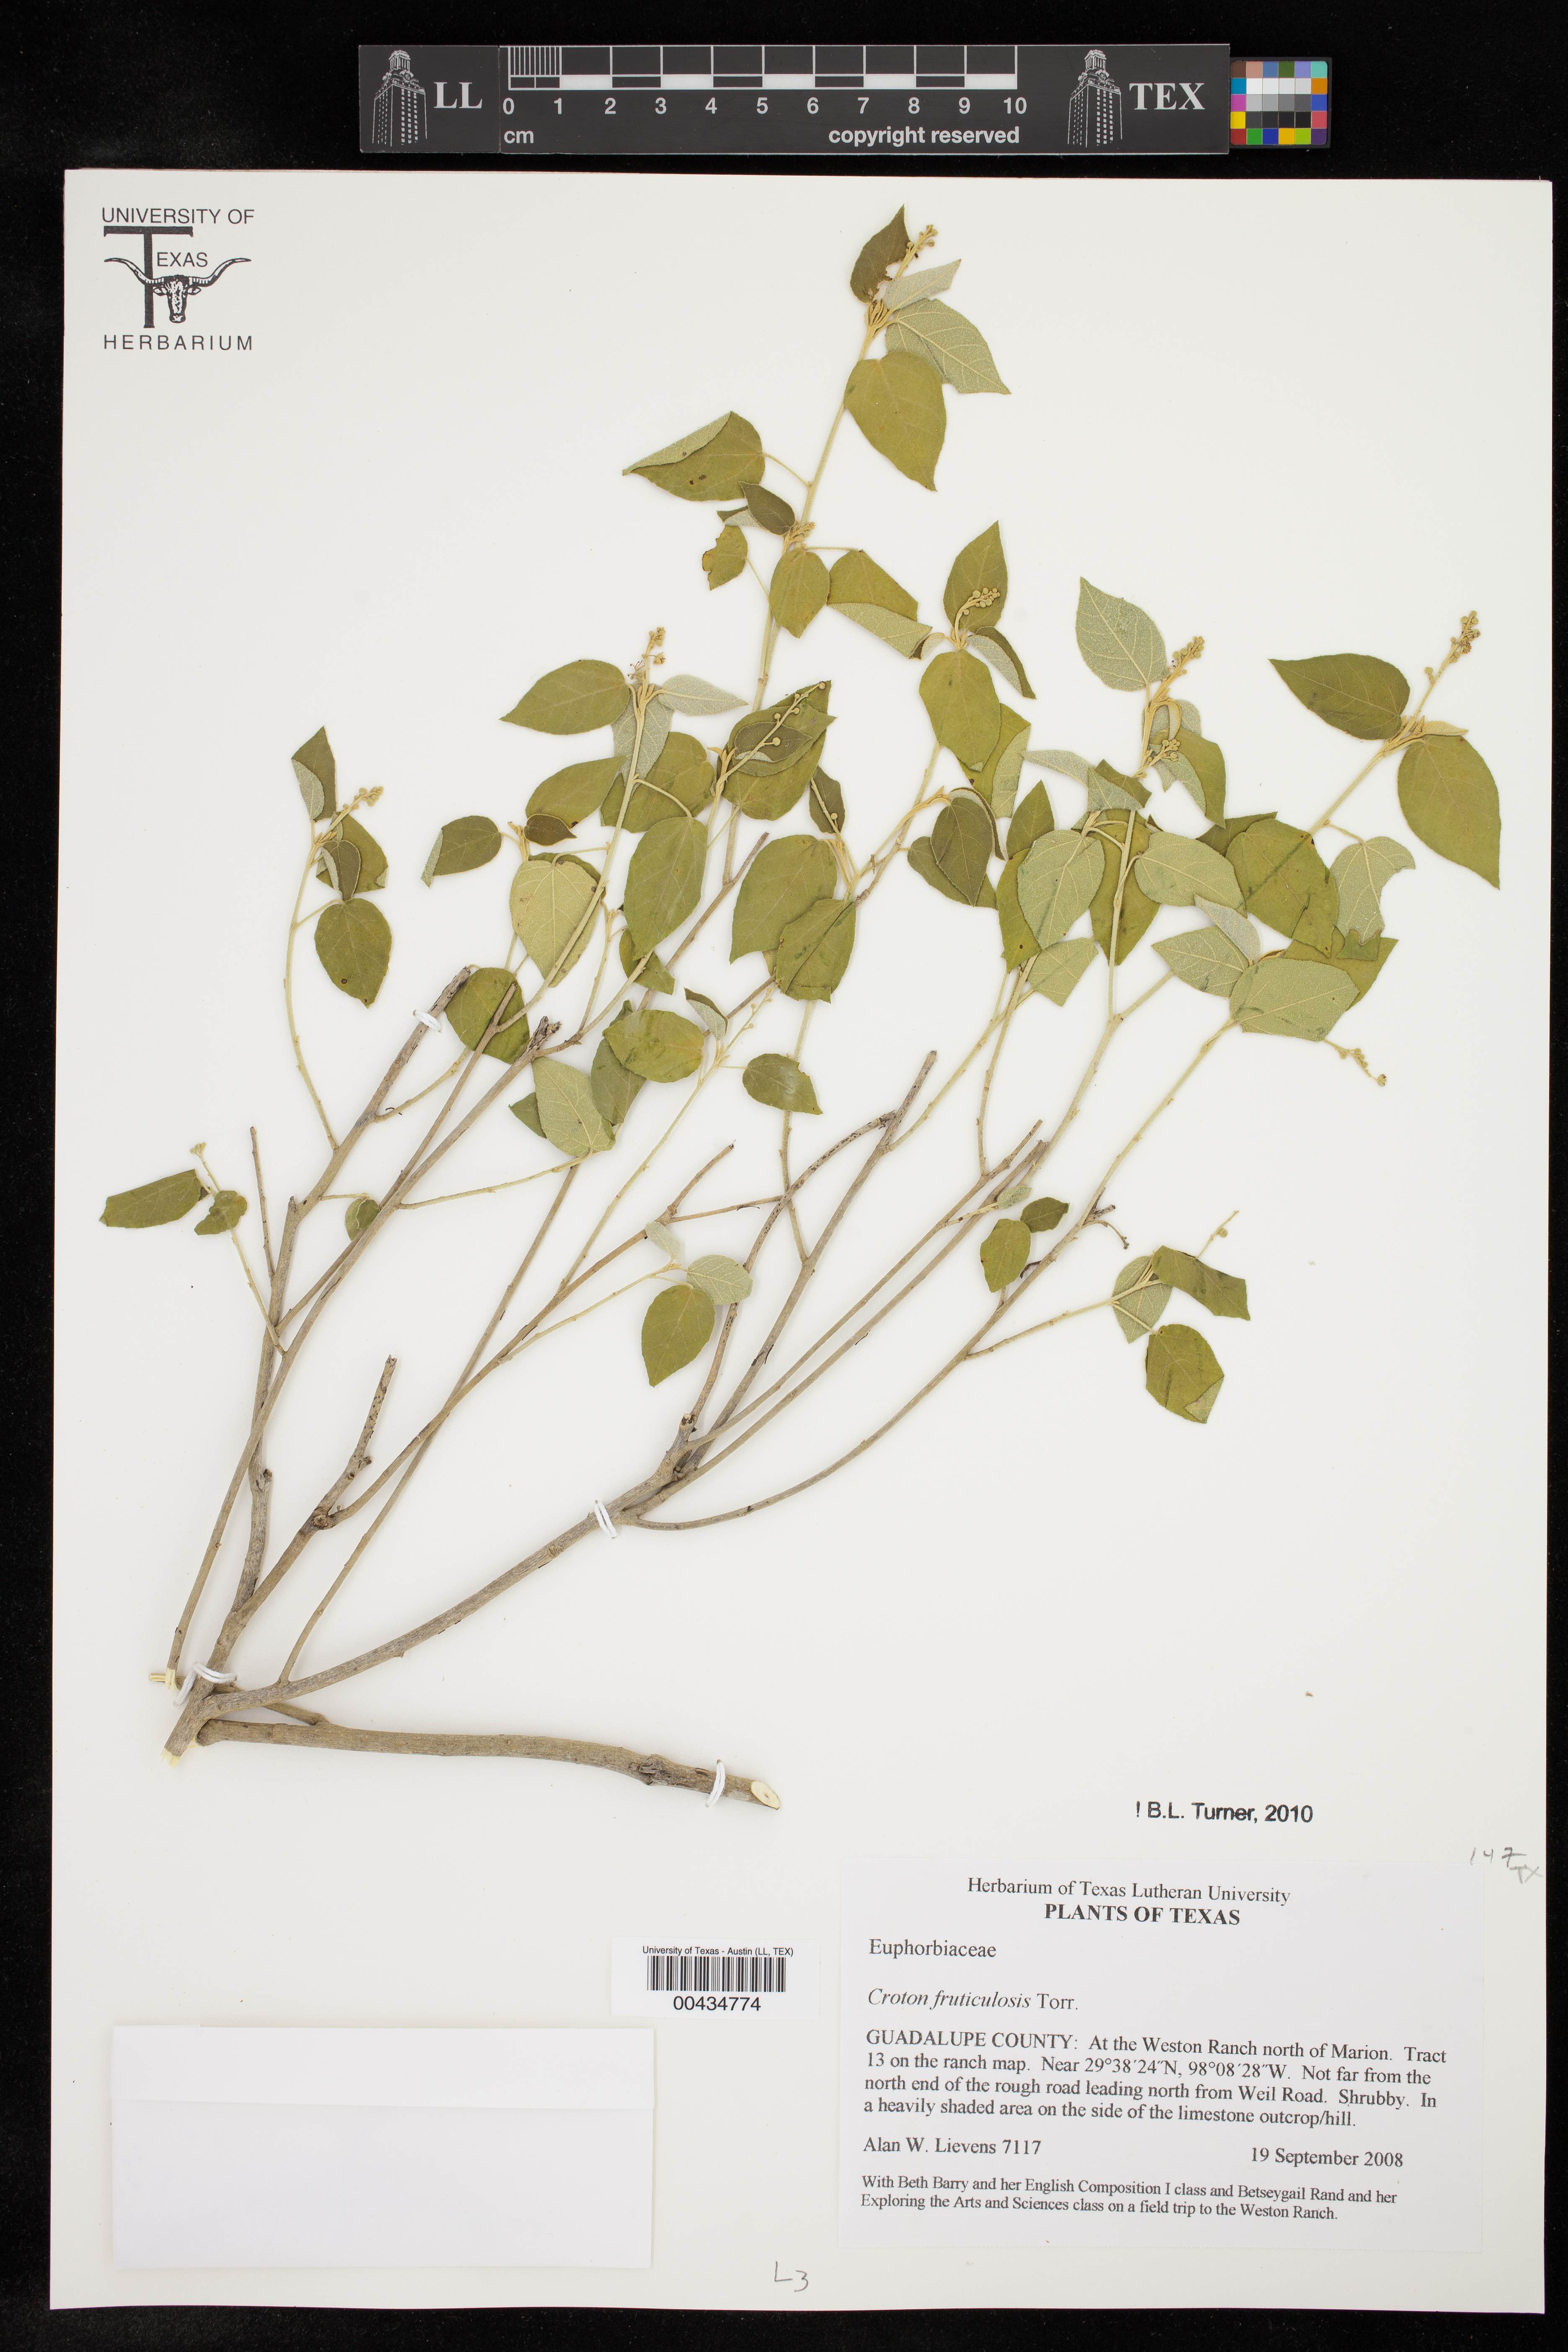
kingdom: Plantae
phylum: Tracheophyta
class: Magnoliopsida
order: Malpighiales
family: Euphorbiaceae
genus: Croton
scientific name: Croton fruticulosus
